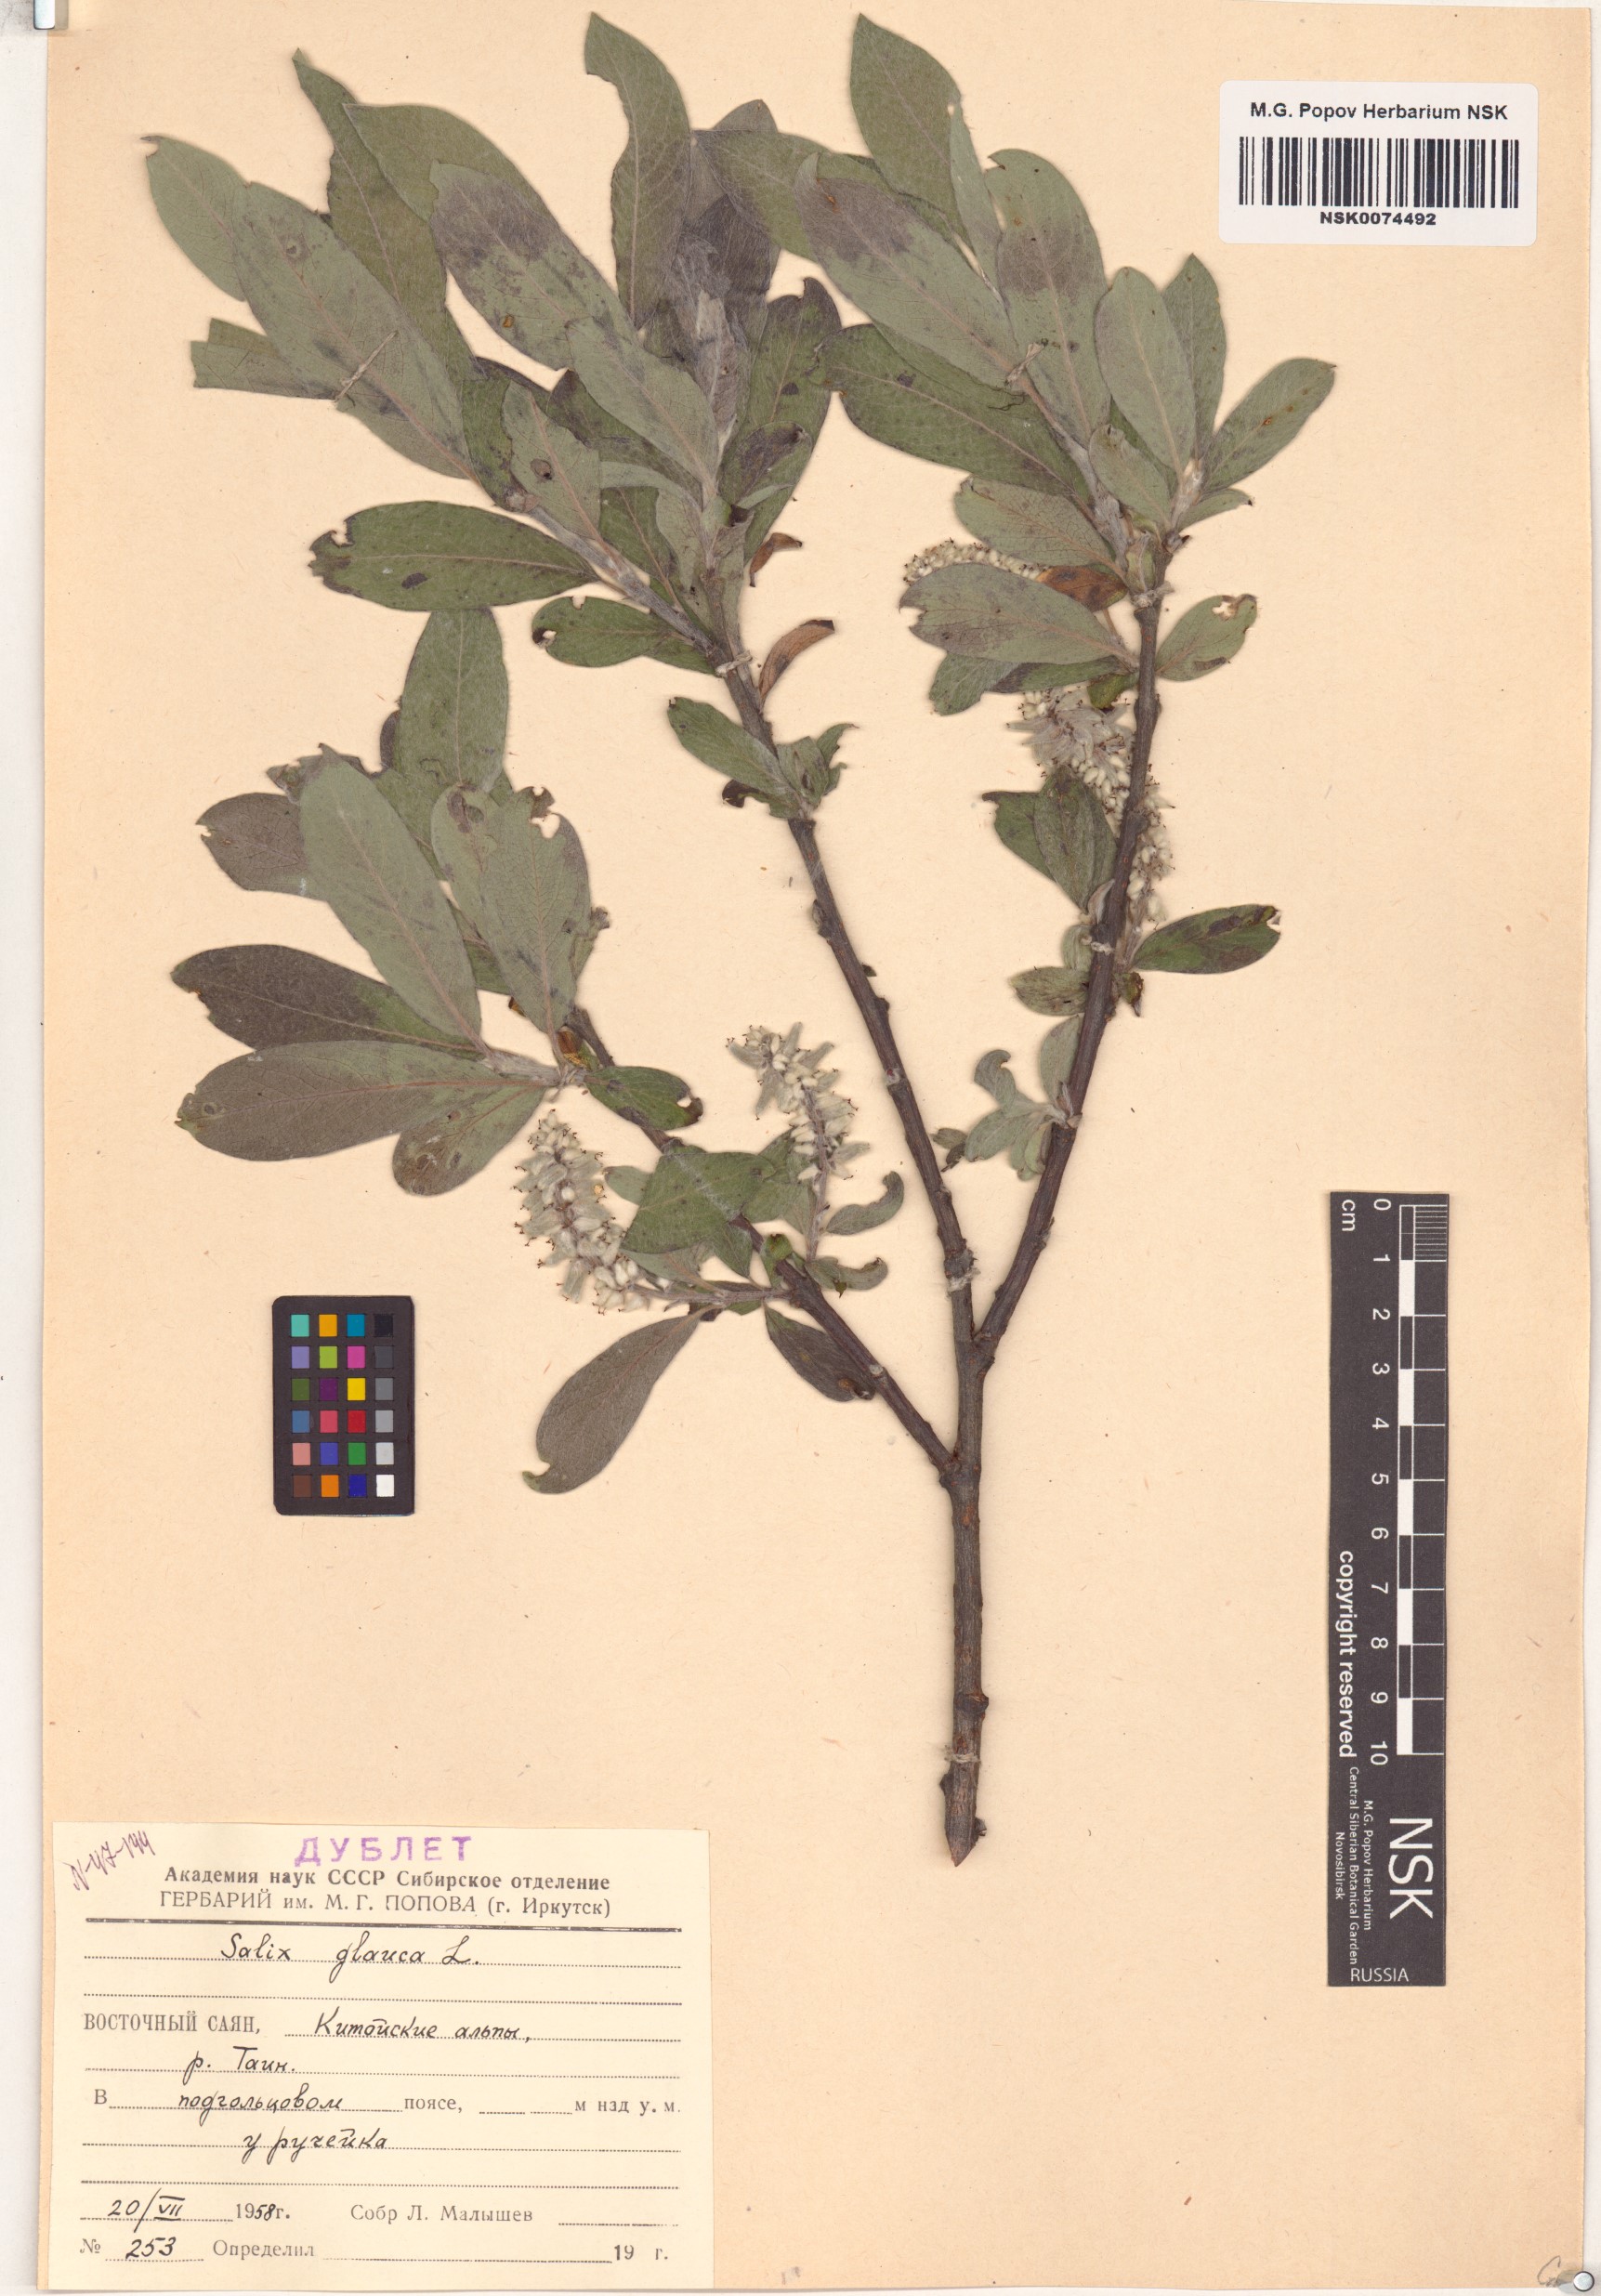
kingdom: Plantae
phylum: Tracheophyta
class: Magnoliopsida
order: Malpighiales
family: Salicaceae
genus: Salix
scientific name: Salix glauca
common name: Glaucous willow
